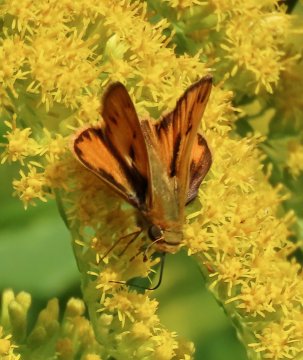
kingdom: Animalia
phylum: Arthropoda
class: Insecta
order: Lepidoptera
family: Hesperiidae
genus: Hylephila
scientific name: Hylephila phyleus
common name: Fiery Skipper
